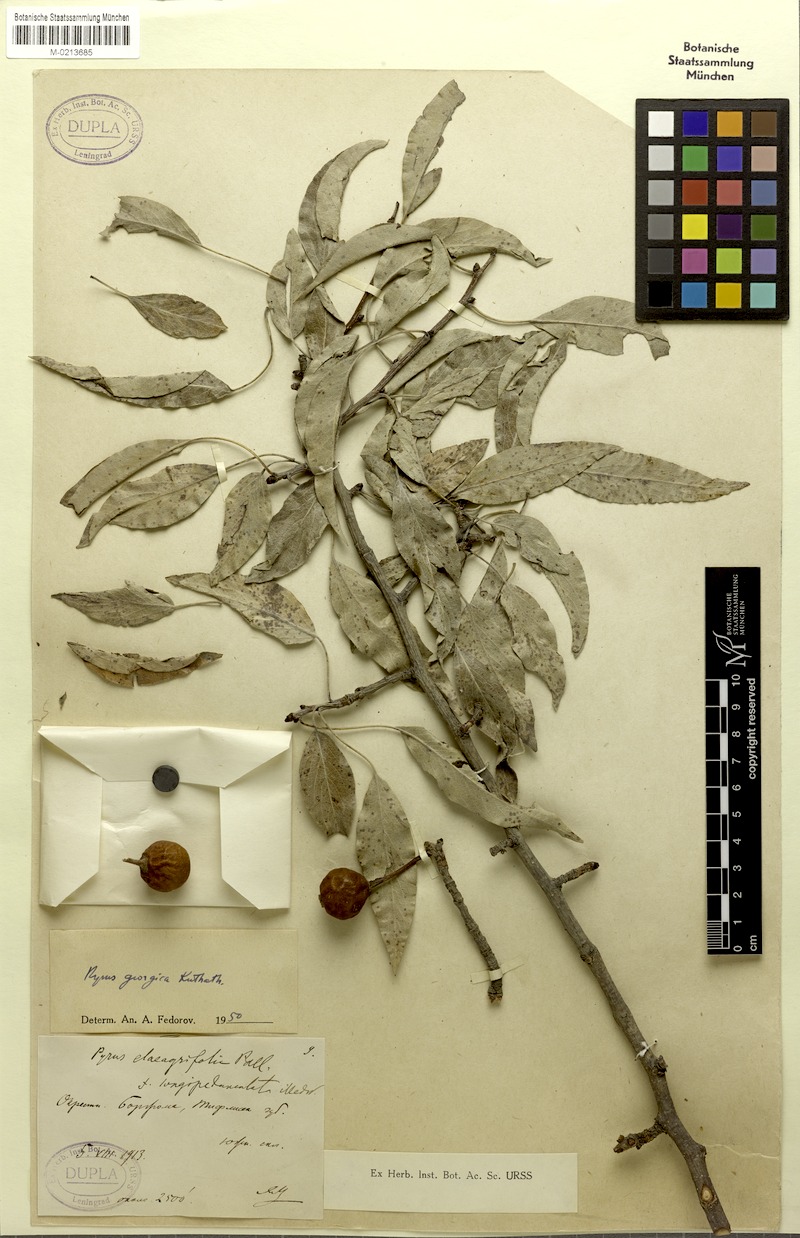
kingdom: Plantae
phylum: Tracheophyta
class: Magnoliopsida
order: Rosales
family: Rosaceae
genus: Pyrus
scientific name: Pyrus georgica
